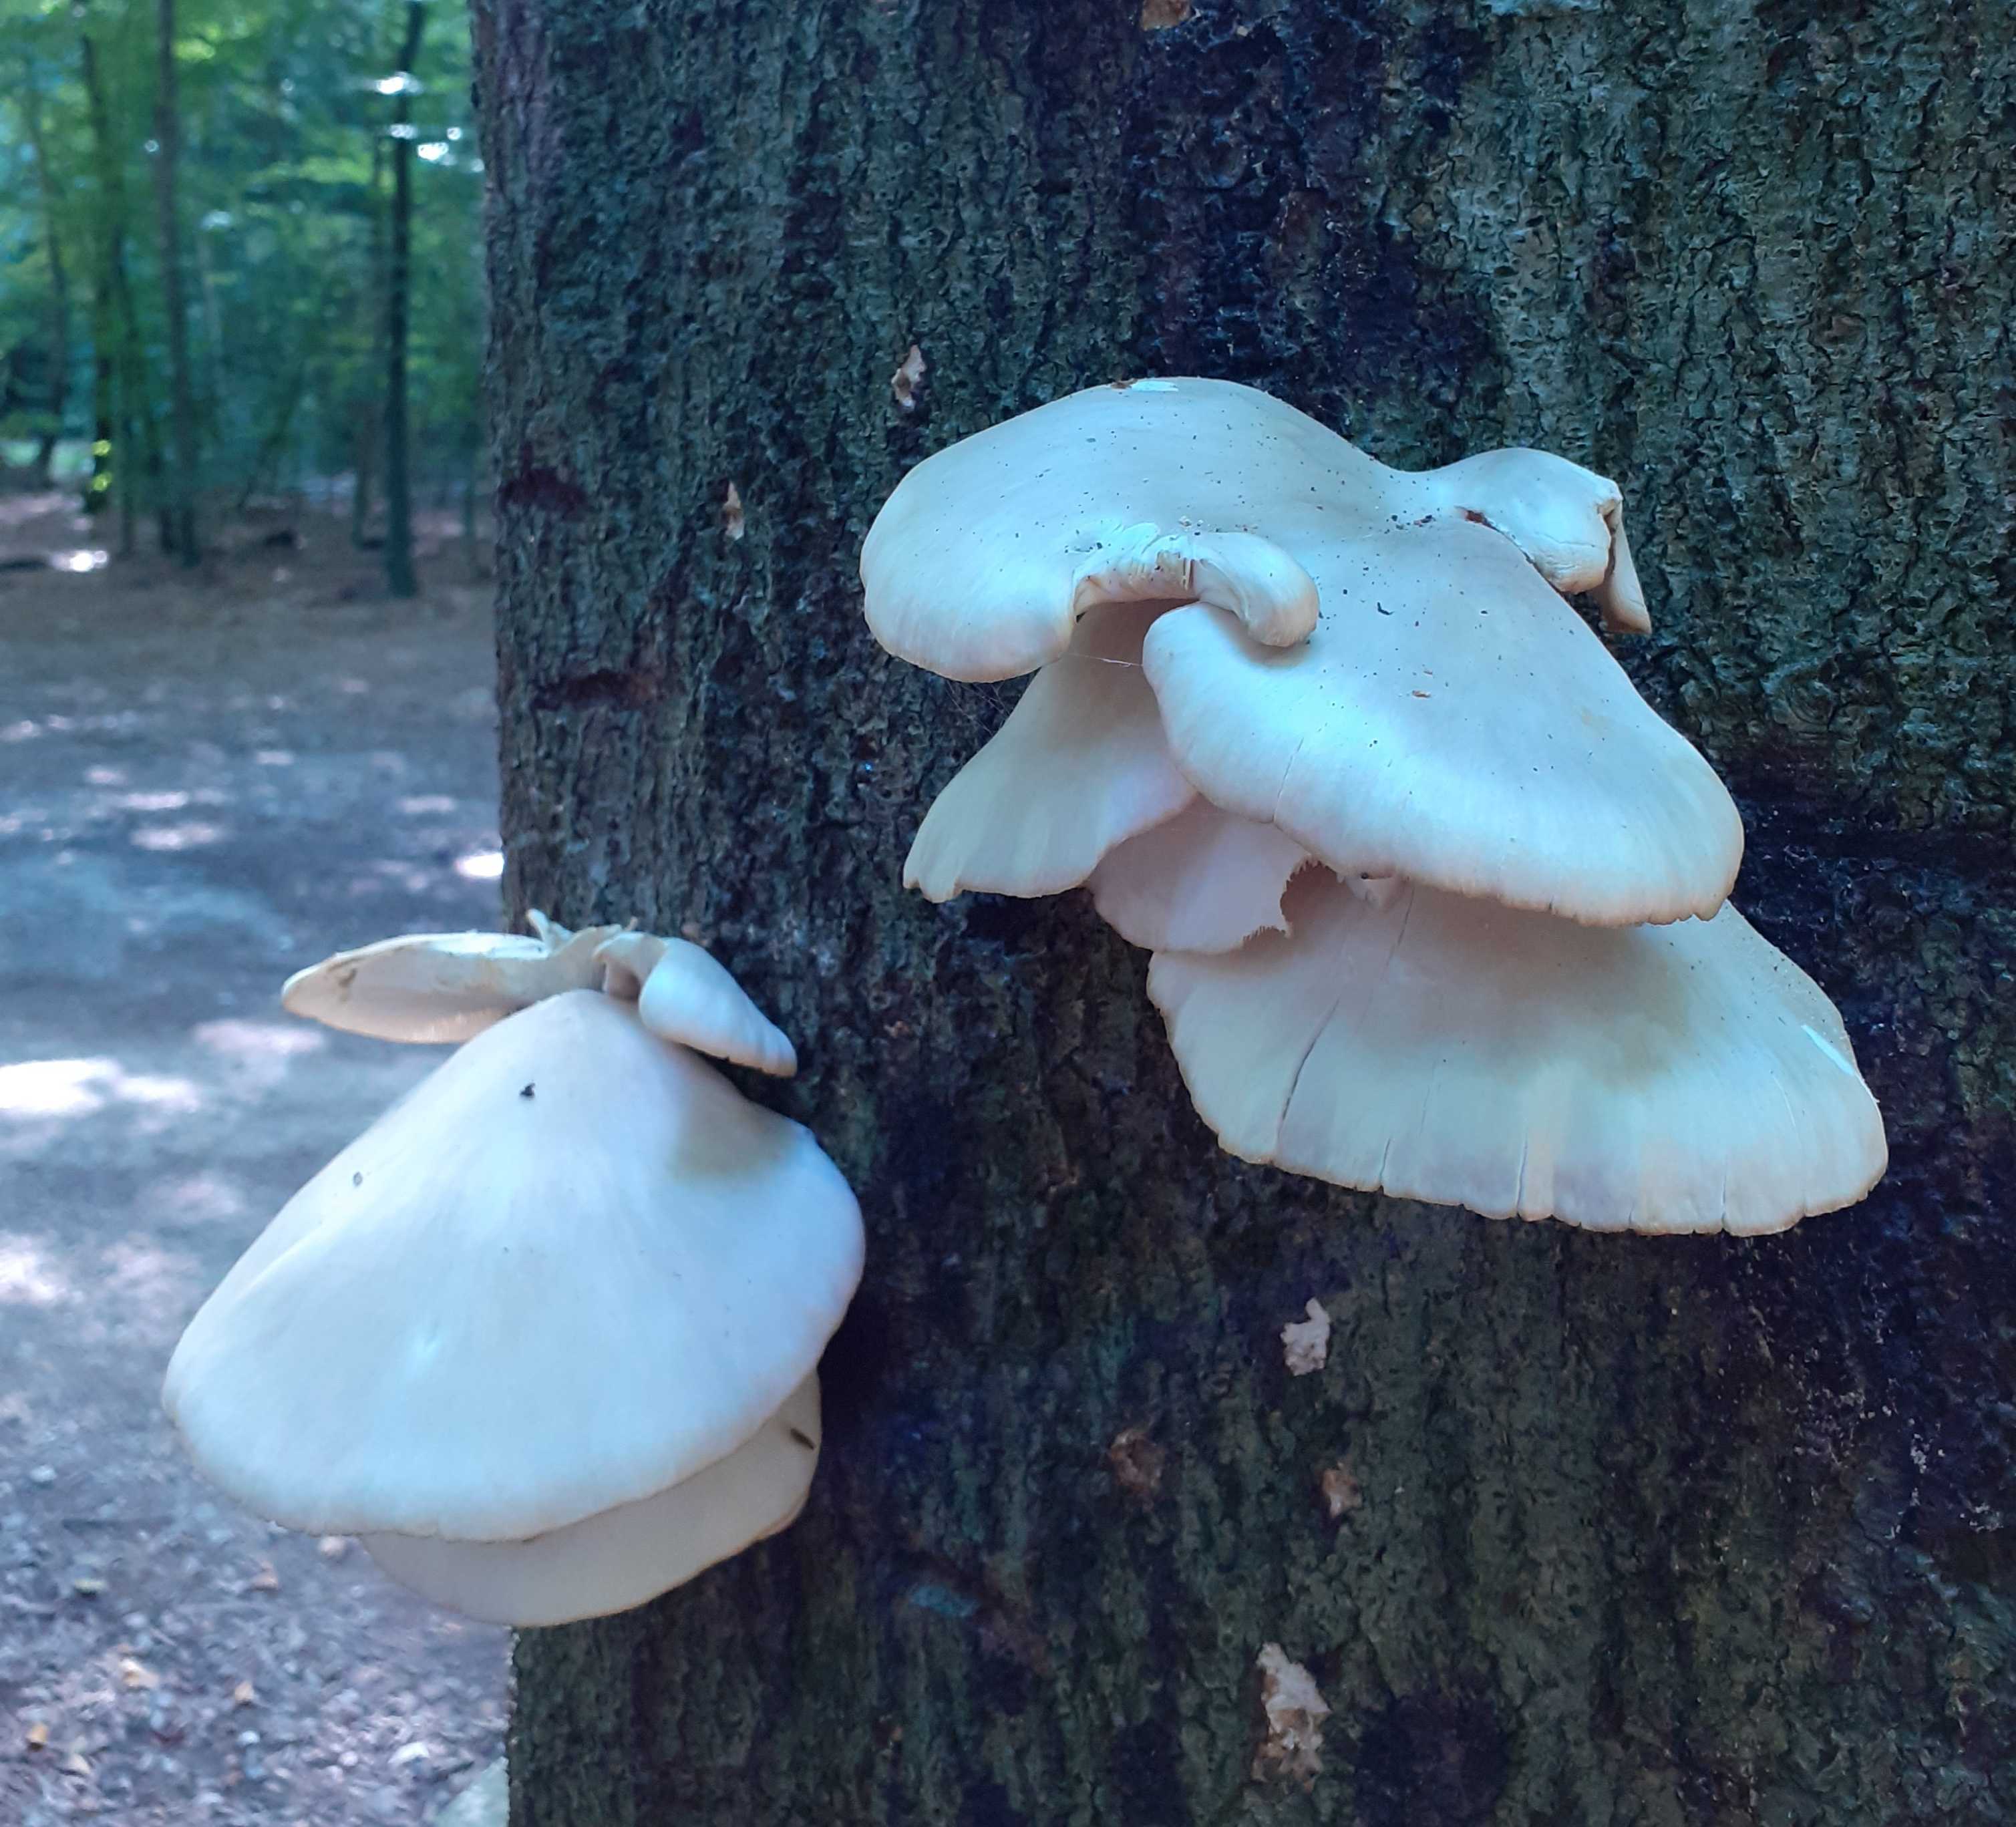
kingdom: Fungi
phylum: Basidiomycota
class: Agaricomycetes
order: Agaricales
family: Pleurotaceae
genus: Pleurotus
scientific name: Pleurotus pulmonarius
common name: sommer-østershat
